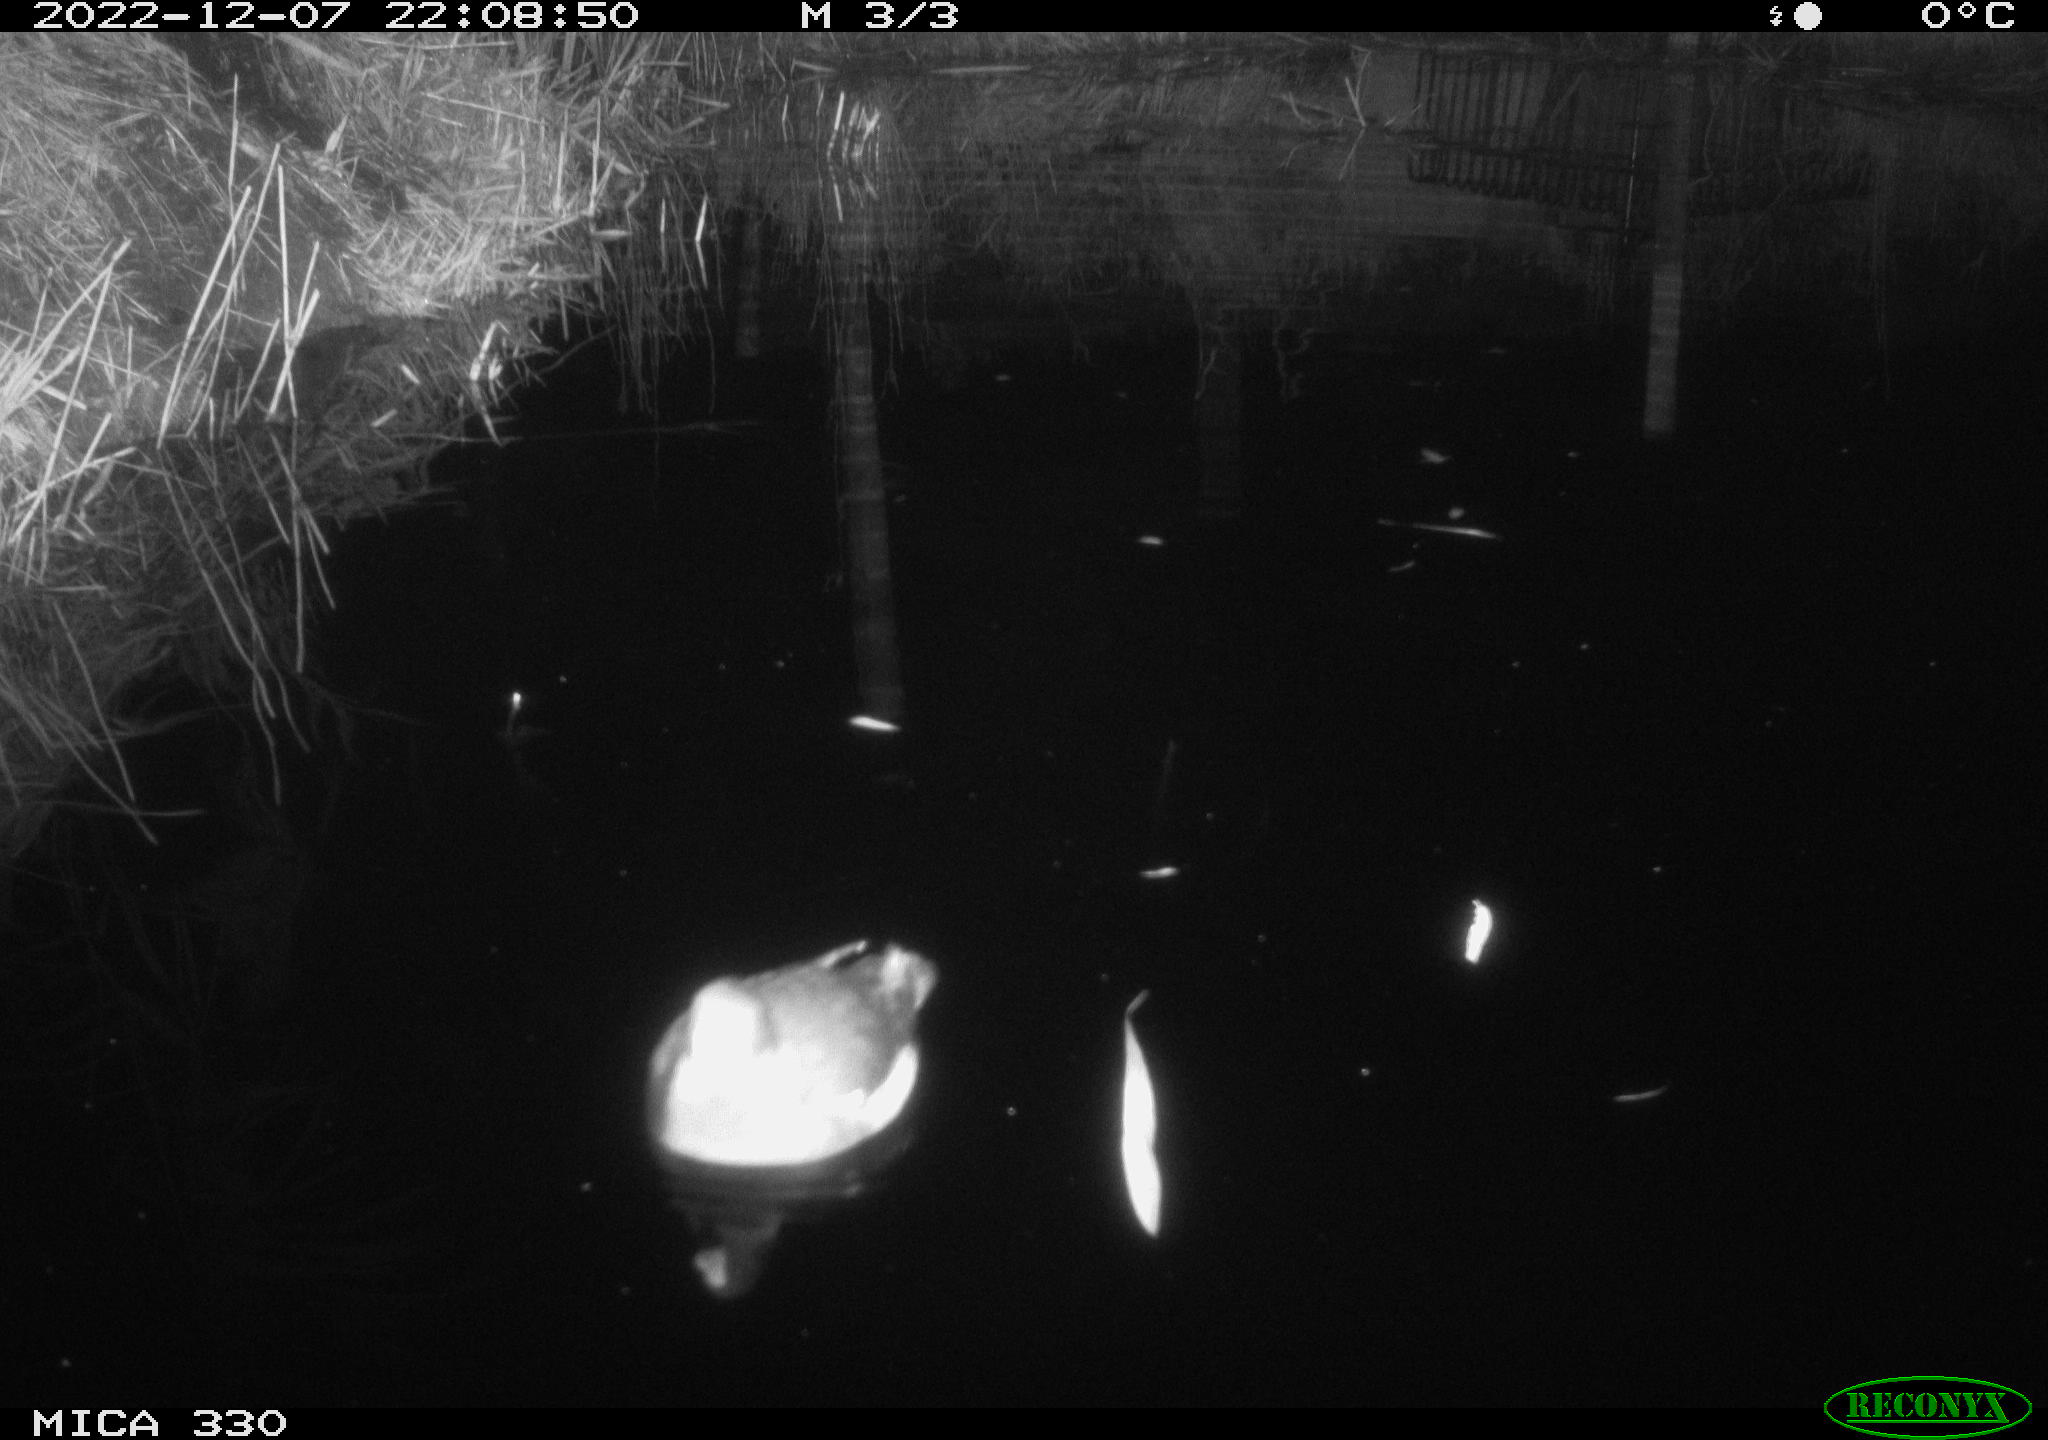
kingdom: Animalia
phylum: Chordata
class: Aves
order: Gruiformes
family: Rallidae
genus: Gallinula
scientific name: Gallinula chloropus
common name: Common moorhen
